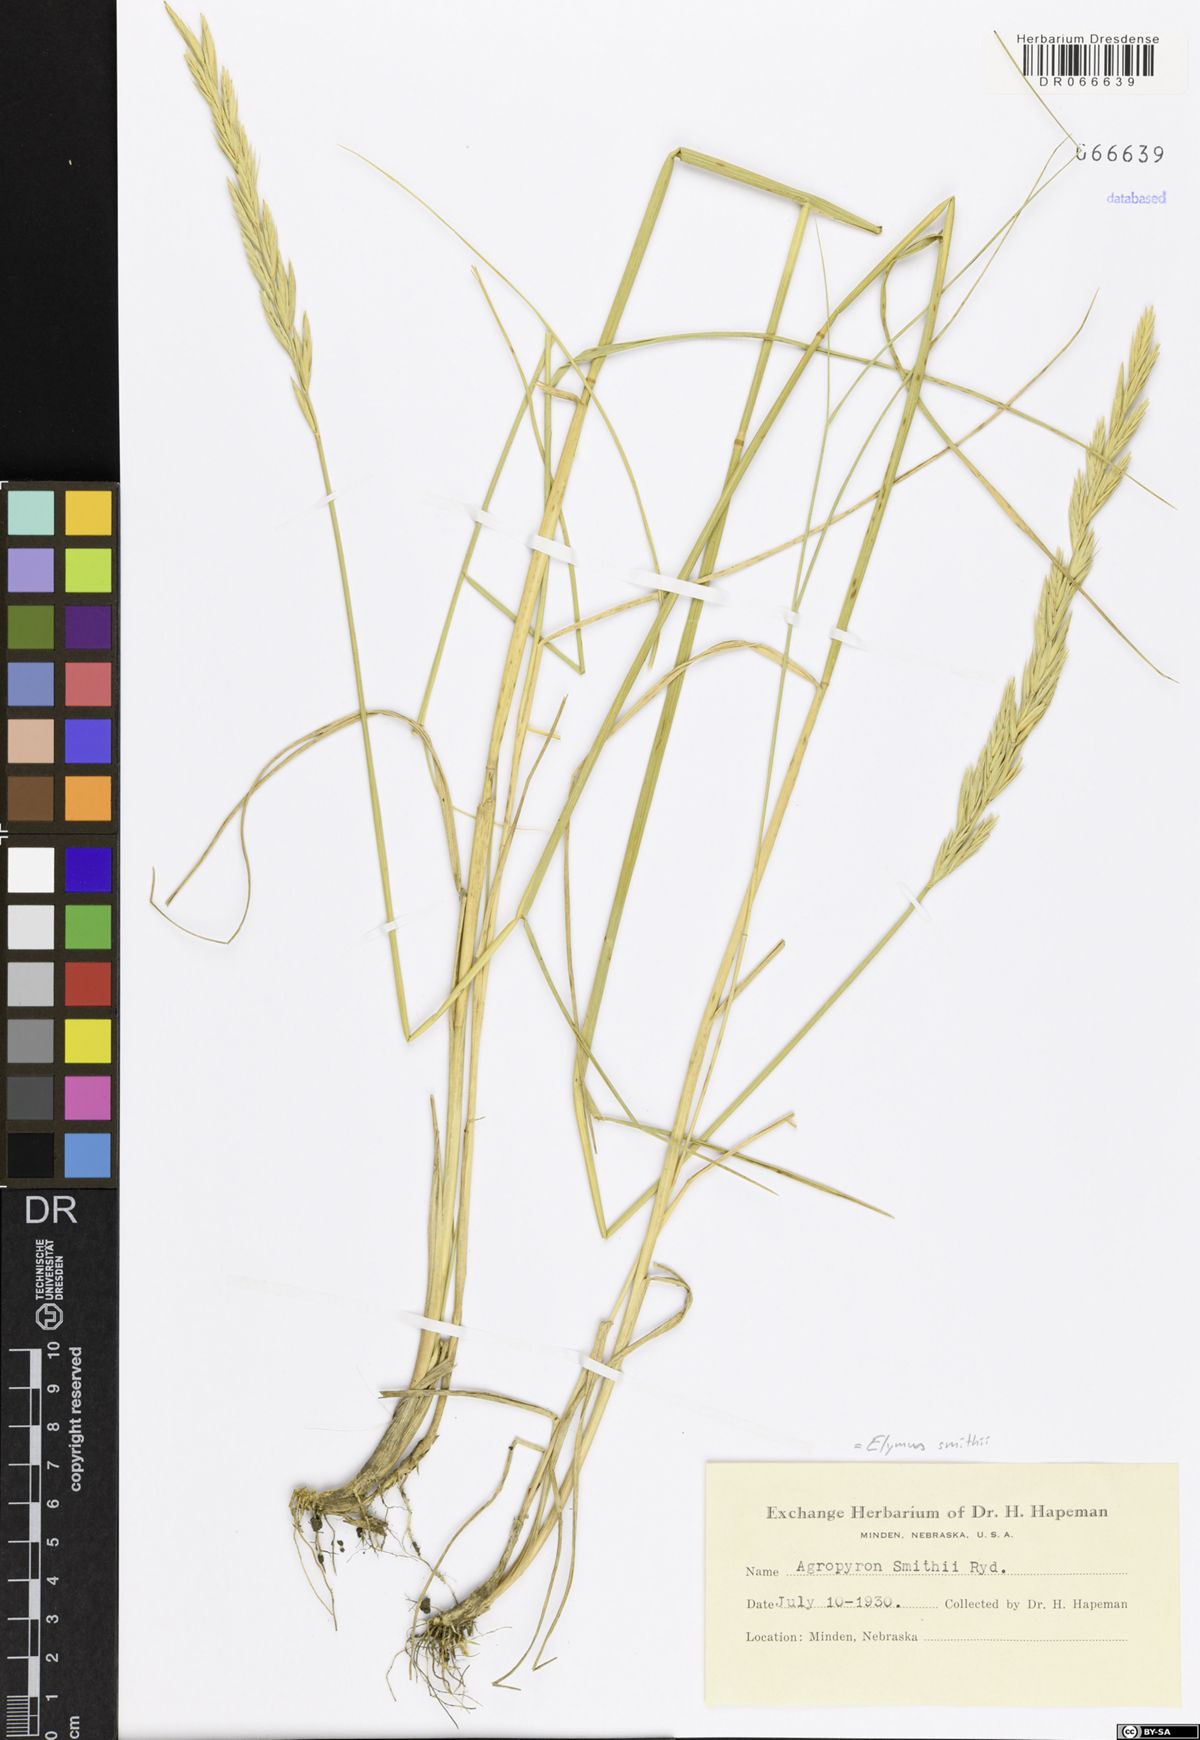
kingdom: Plantae
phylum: Tracheophyta
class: Liliopsida
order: Poales
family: Poaceae
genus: Elymus
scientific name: Elymus smithii
